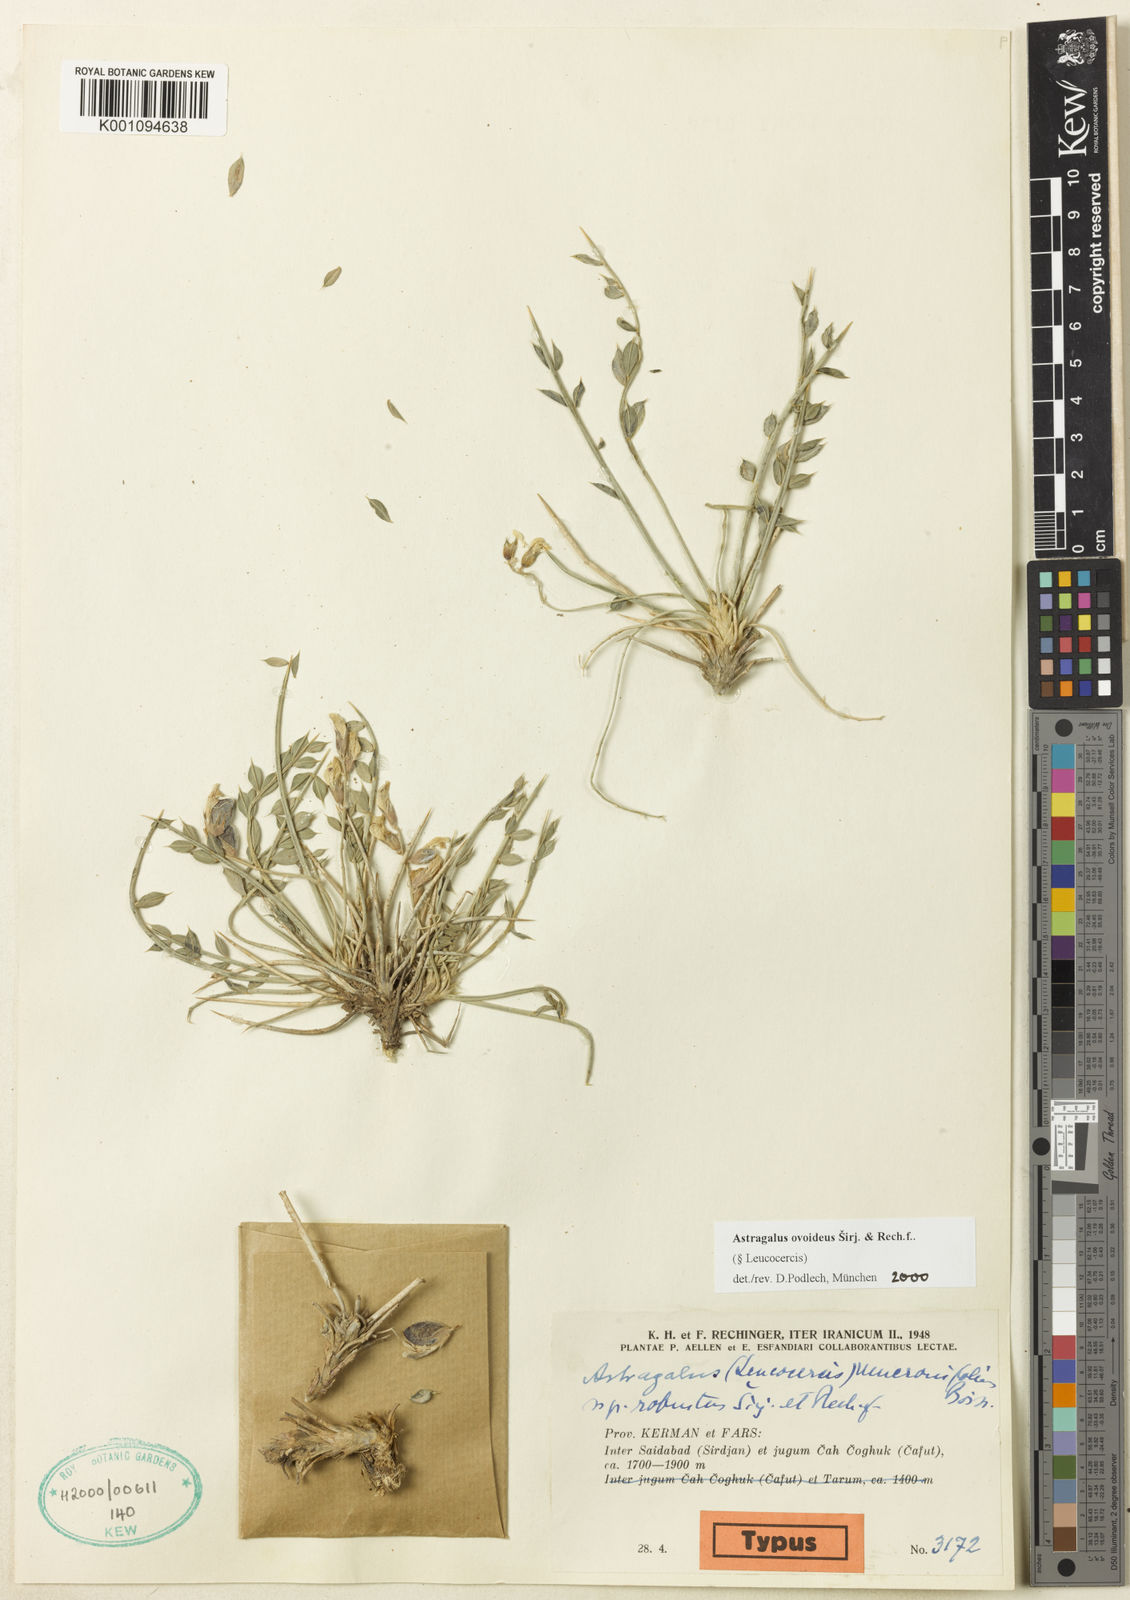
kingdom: Plantae
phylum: Tracheophyta
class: Magnoliopsida
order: Fabales
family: Fabaceae
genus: Astragalus
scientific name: Astragalus
